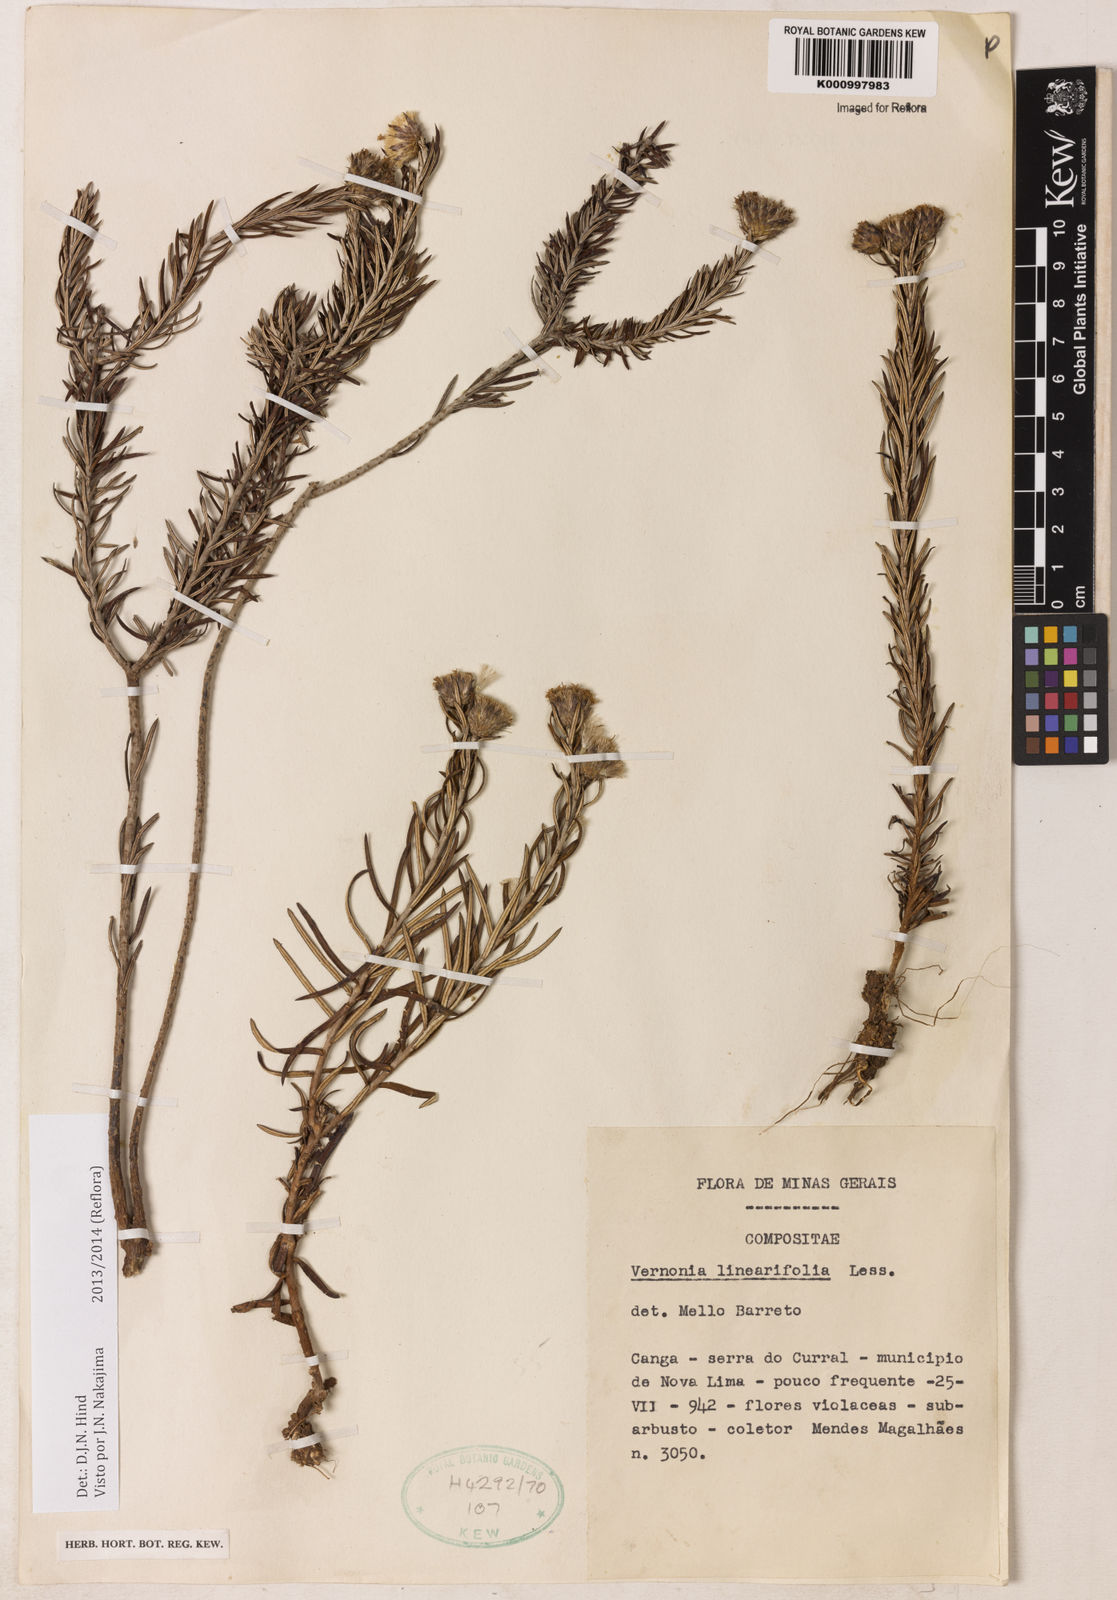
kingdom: Plantae
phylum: Tracheophyta
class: Magnoliopsida
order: Asterales
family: Asteraceae
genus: Lessingianthus
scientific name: Lessingianthus rosmarinifolius
